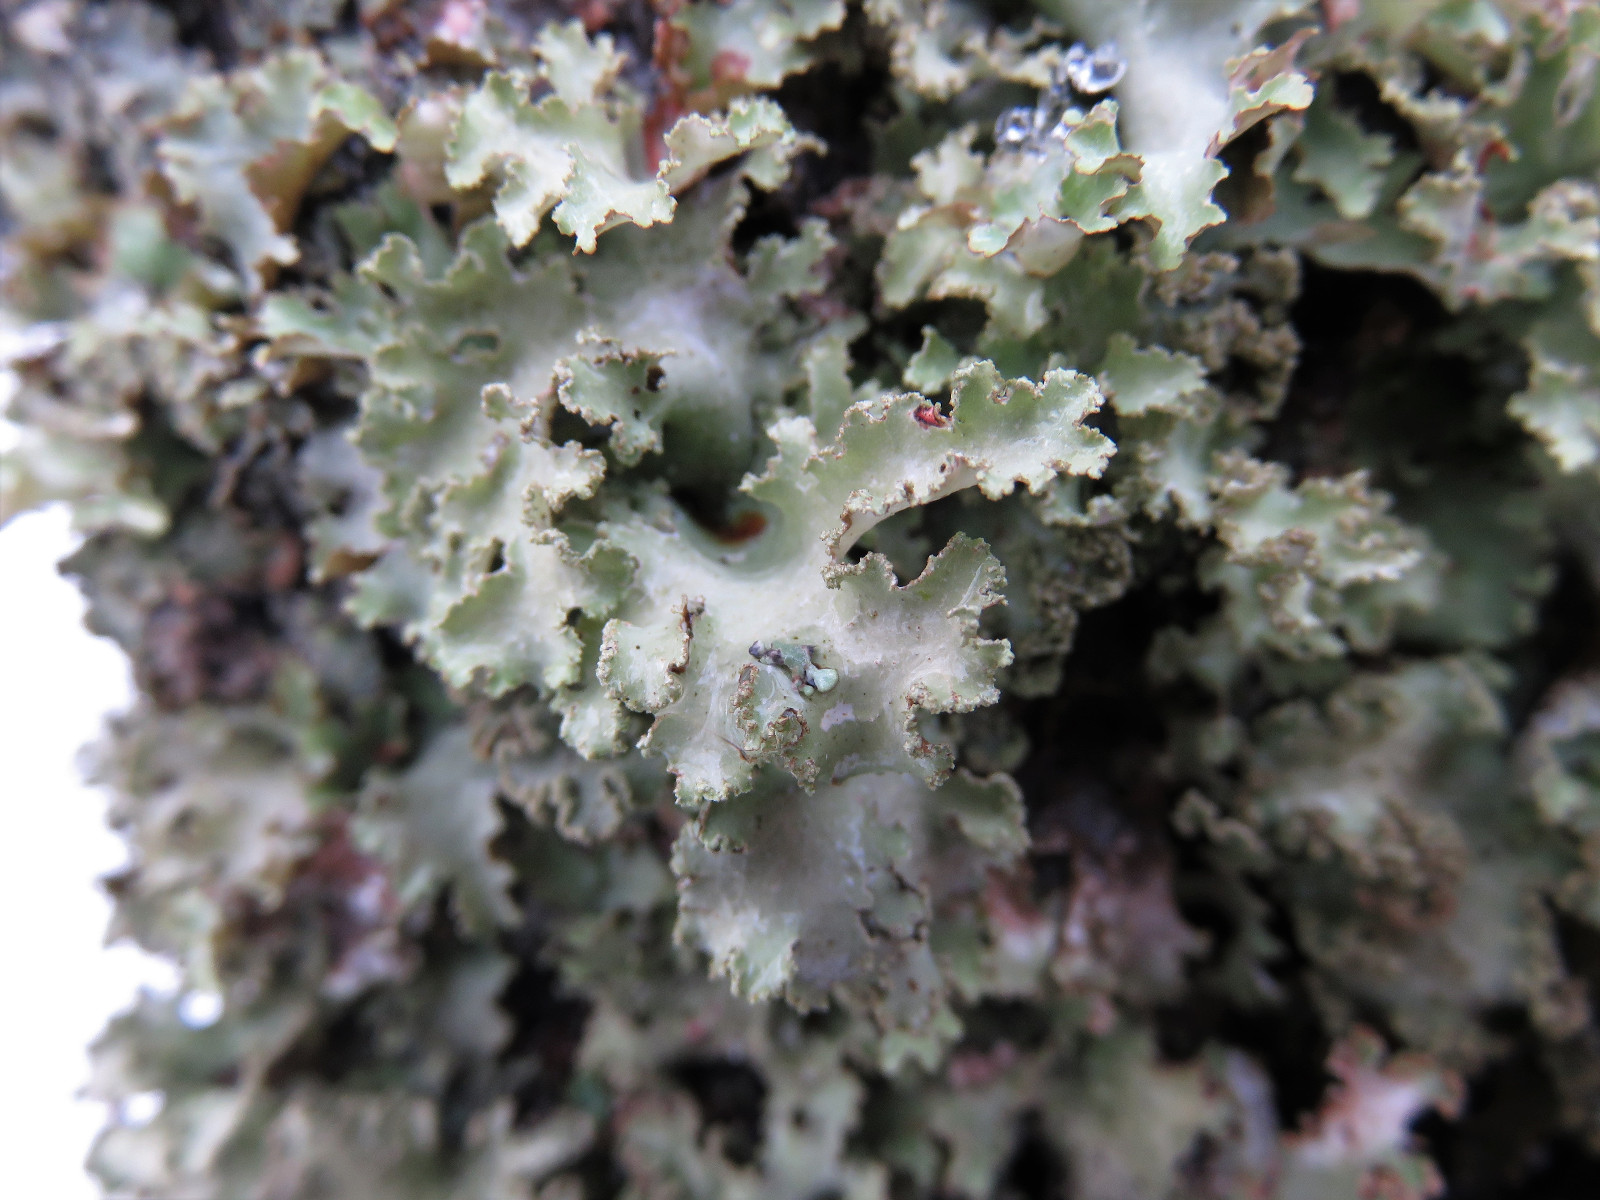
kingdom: Fungi
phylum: Ascomycota
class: Lecanoromycetes
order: Lecanorales
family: Parmeliaceae
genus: Platismatia
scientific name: Platismatia glauca
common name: blågrå papirlav
